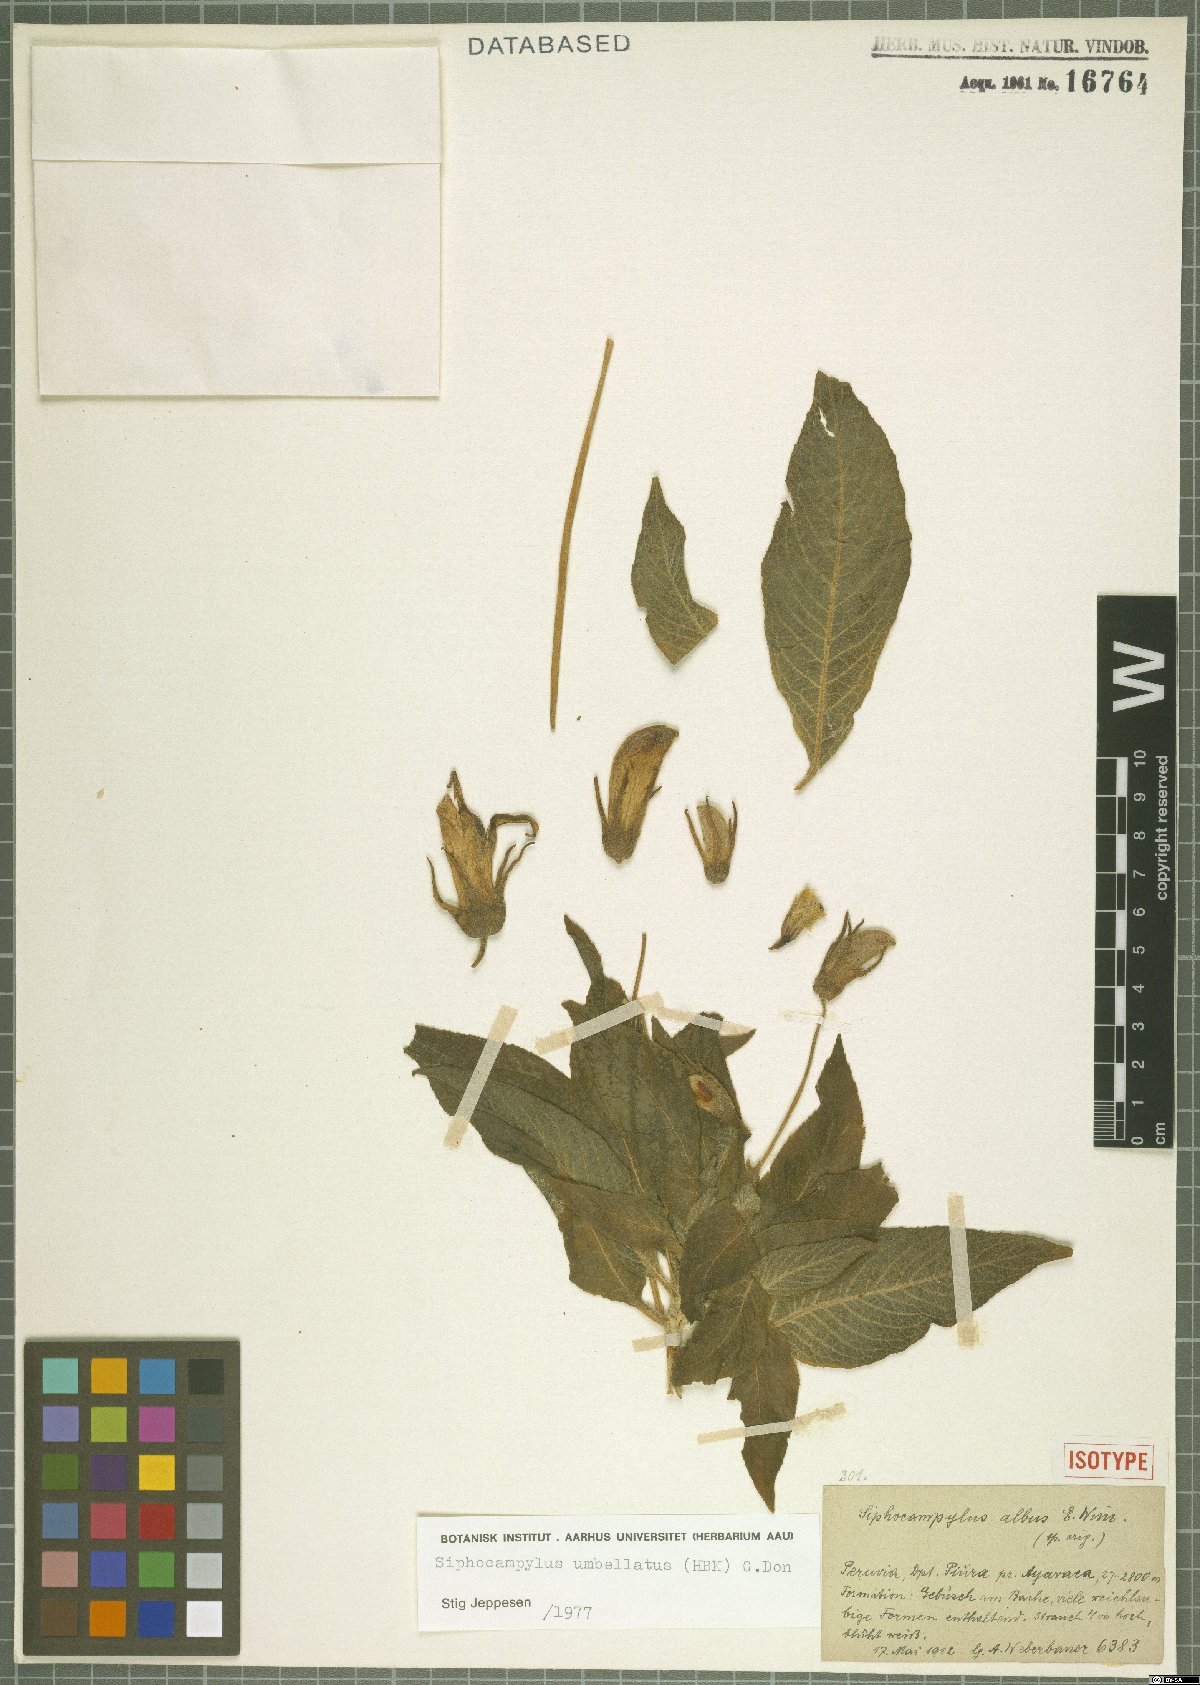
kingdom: Plantae
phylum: Tracheophyta
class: Magnoliopsida
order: Asterales
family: Campanulaceae
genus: Siphocampylus
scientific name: Siphocampylus umbellatus
